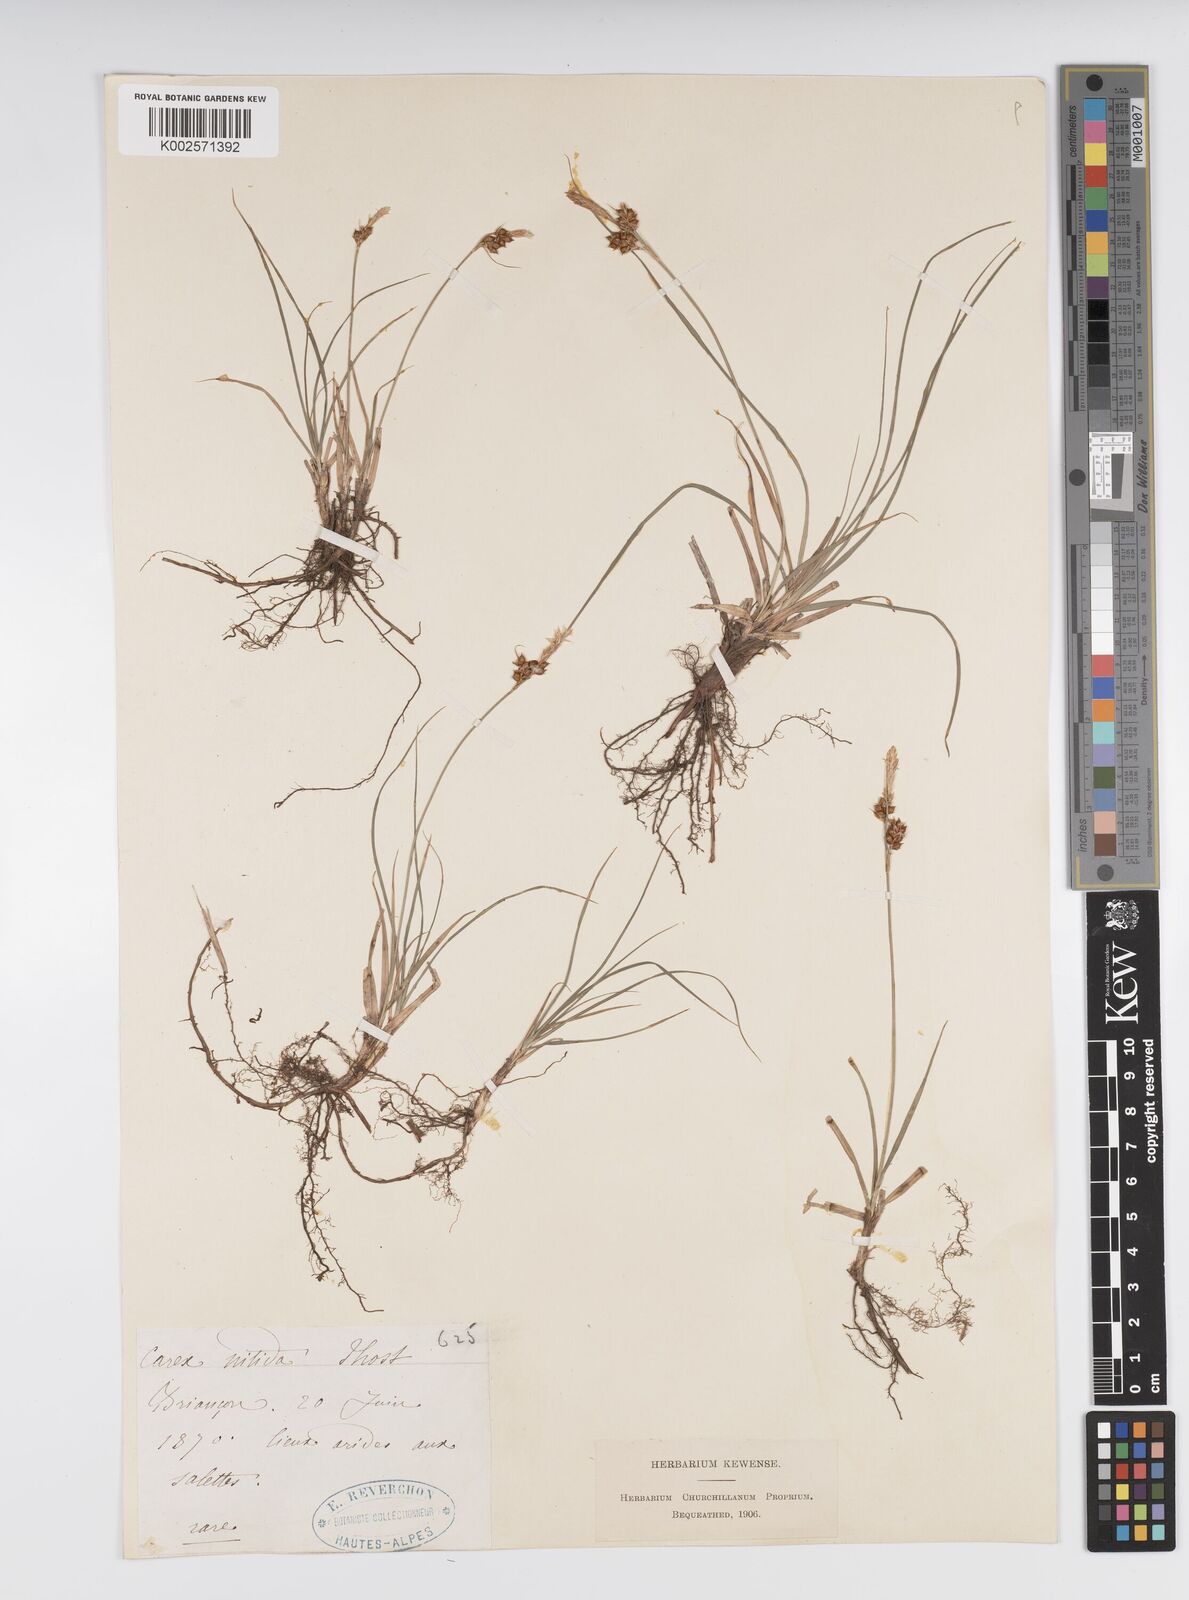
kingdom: Plantae
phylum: Tracheophyta
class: Liliopsida
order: Poales
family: Cyperaceae
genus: Carex
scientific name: Carex liparocarpos
